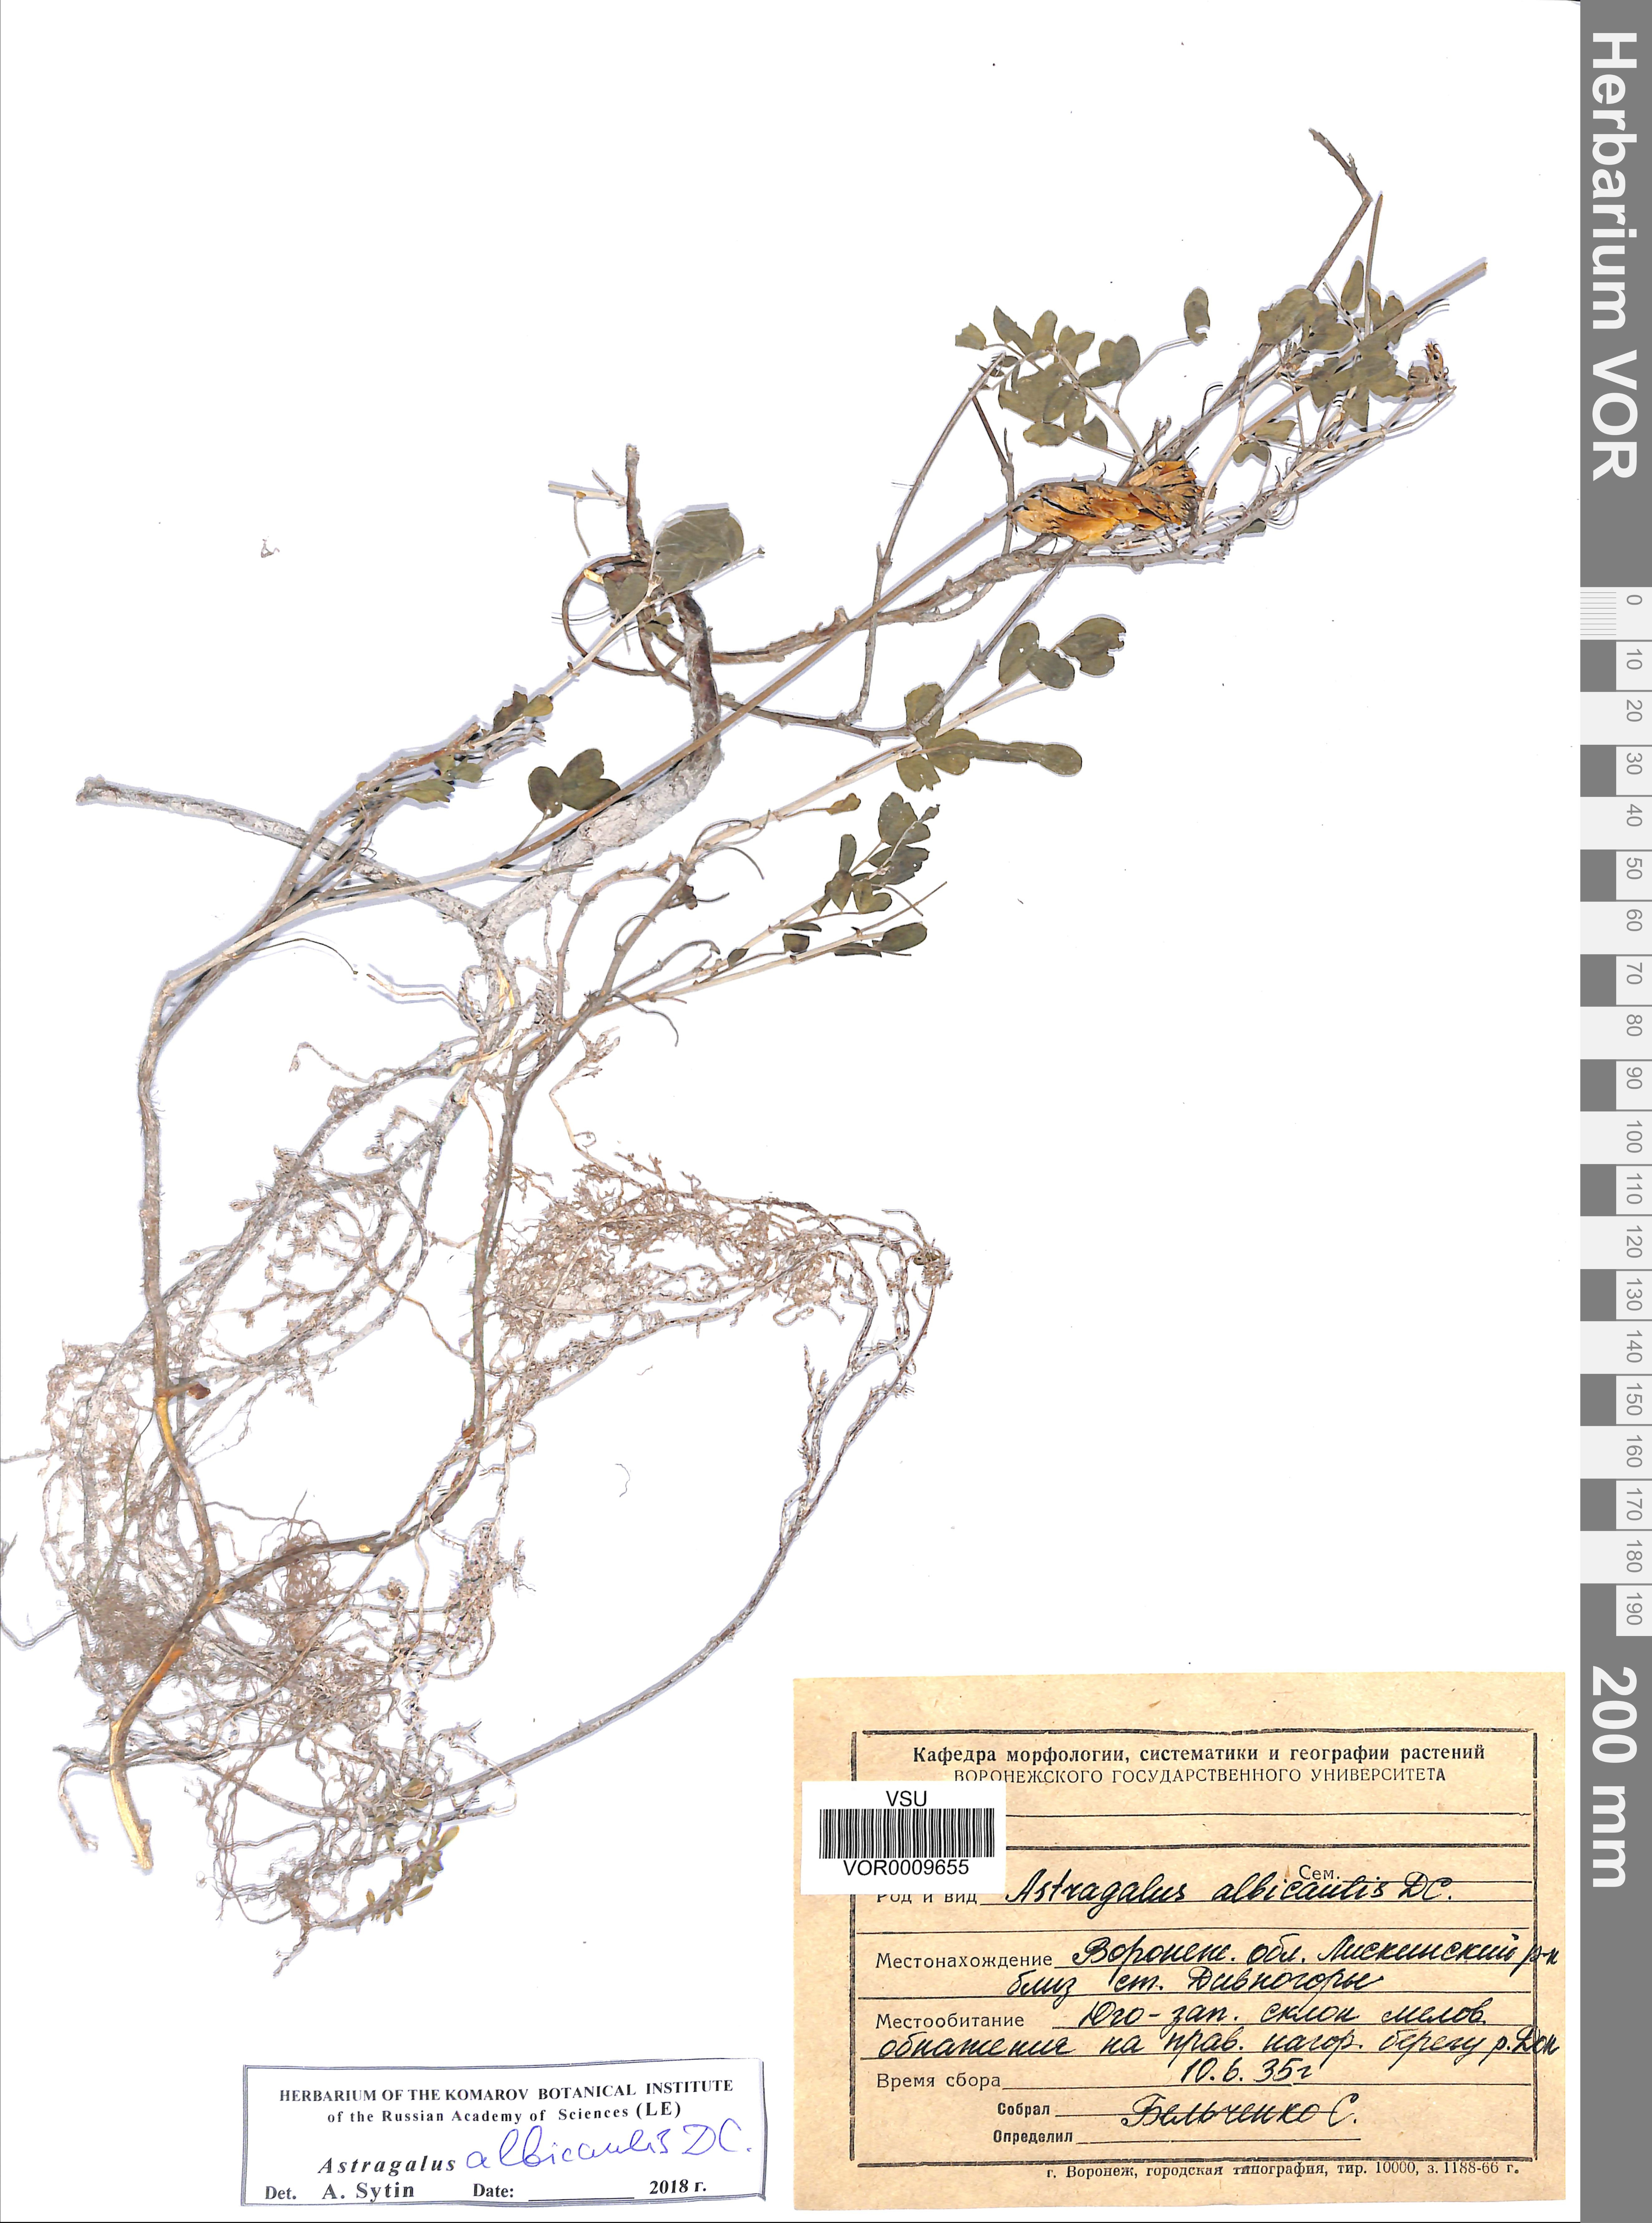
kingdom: Plantae
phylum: Tracheophyta
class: Magnoliopsida
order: Fabales
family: Fabaceae
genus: Astragalus
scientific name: Astragalus albicaulis
